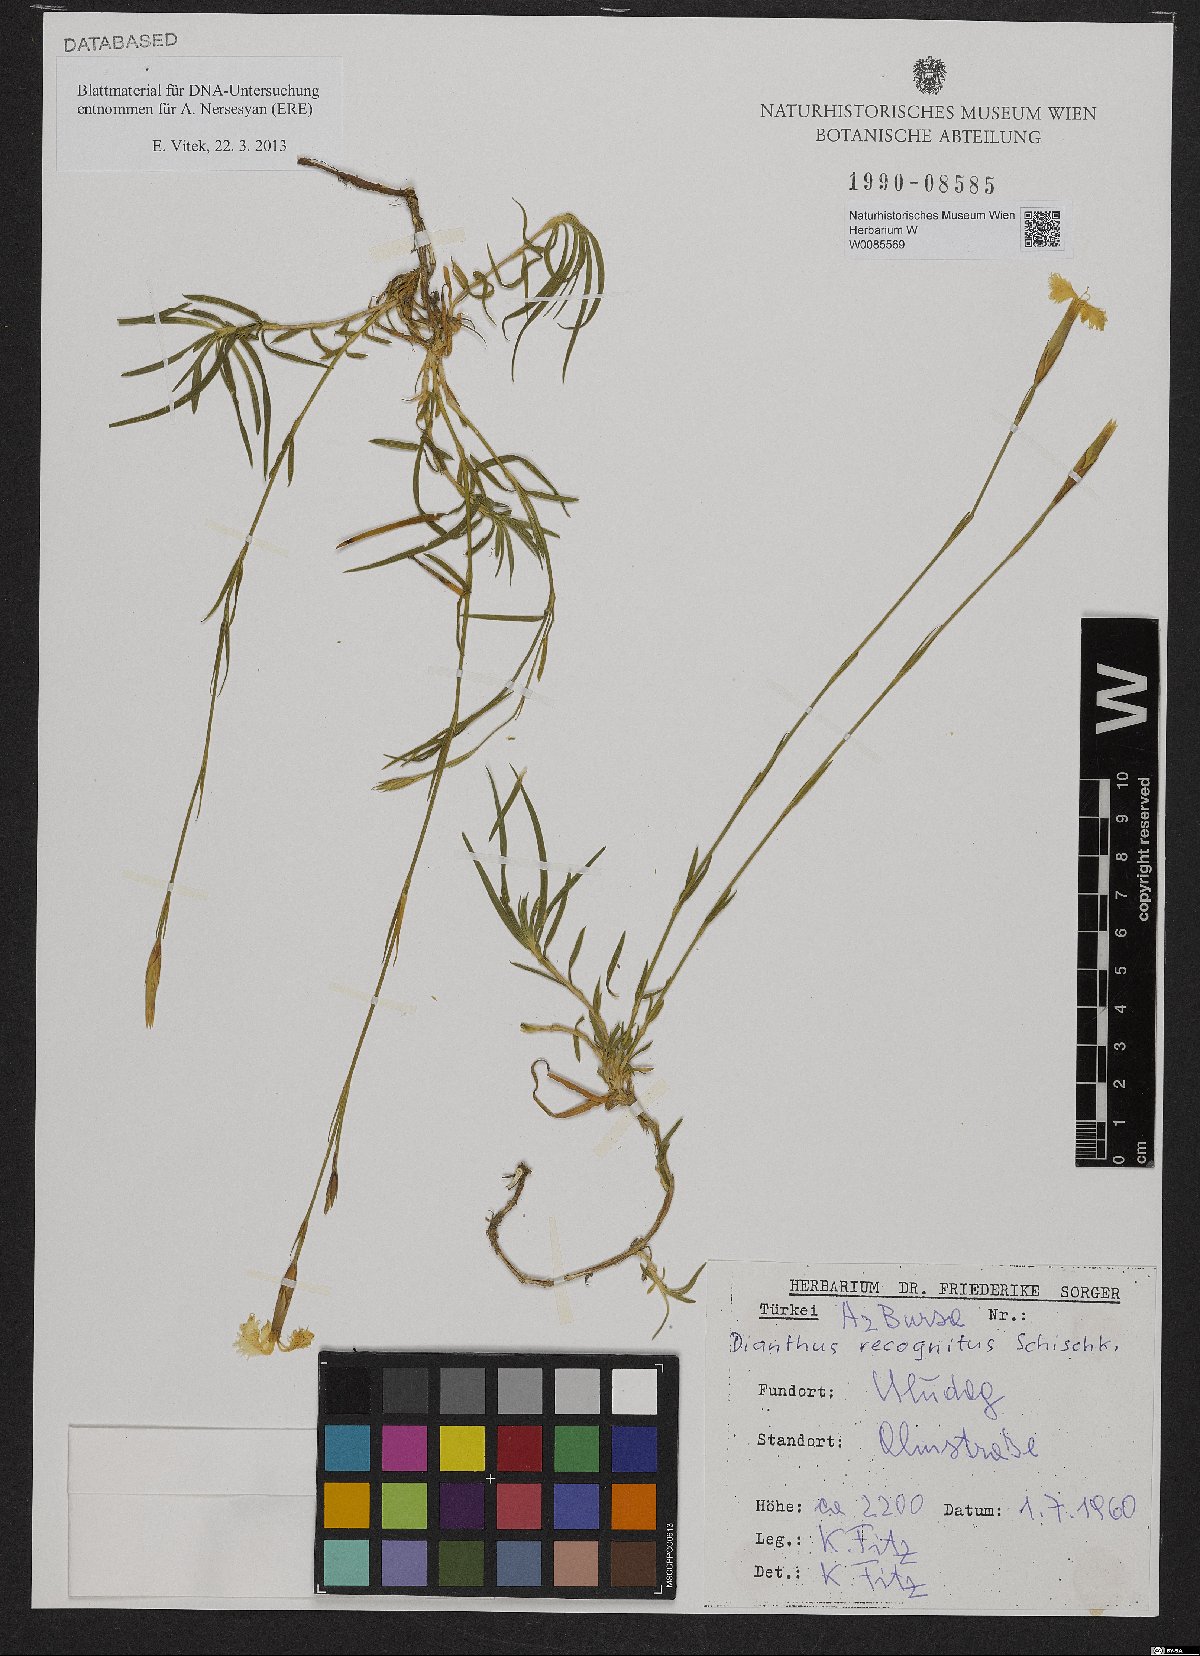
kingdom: Plantae
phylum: Tracheophyta
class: Magnoliopsida
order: Caryophyllales
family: Caryophyllaceae
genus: Dianthus
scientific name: Dianthus recognitus
